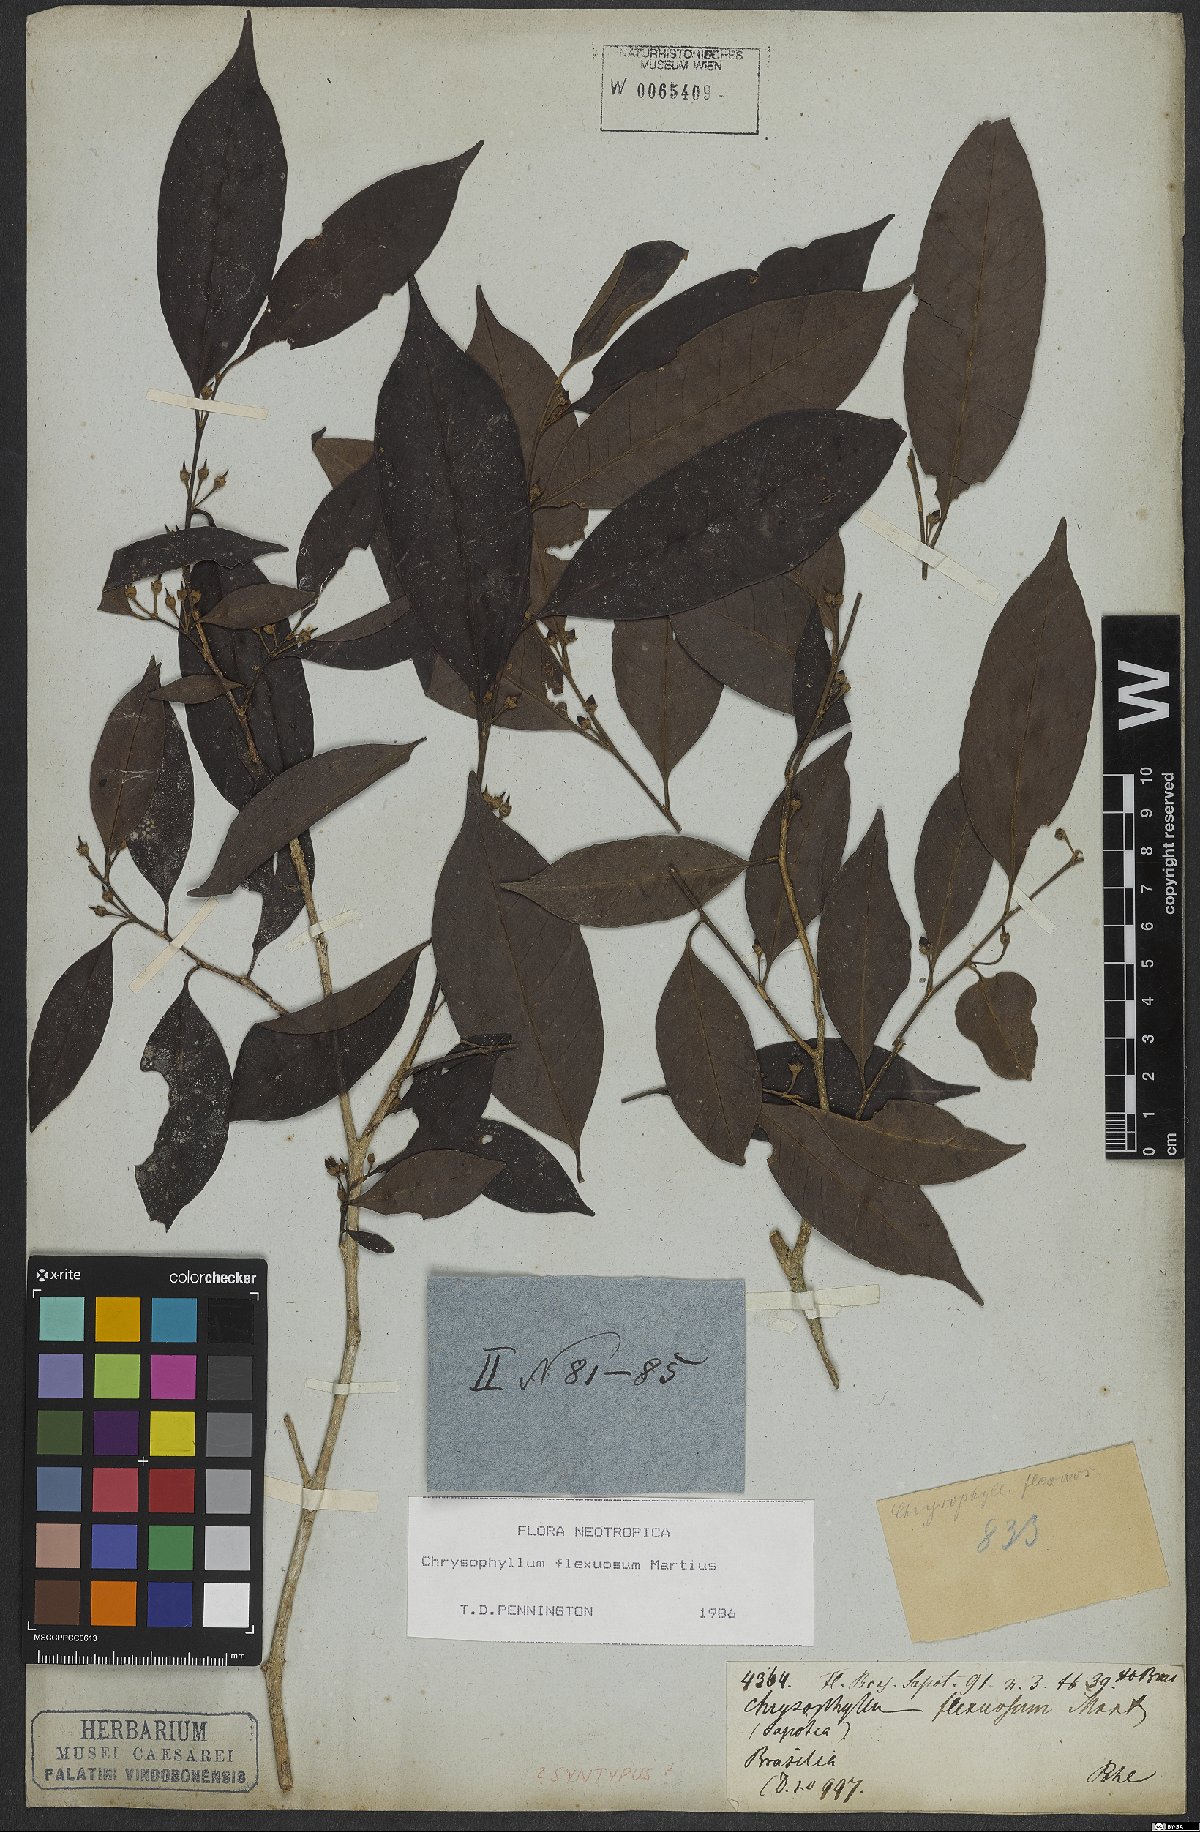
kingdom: Plantae
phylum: Tracheophyta
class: Magnoliopsida
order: Ericales
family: Sapotaceae
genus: Chrysophyllum
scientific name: Chrysophyllum flexuosum
